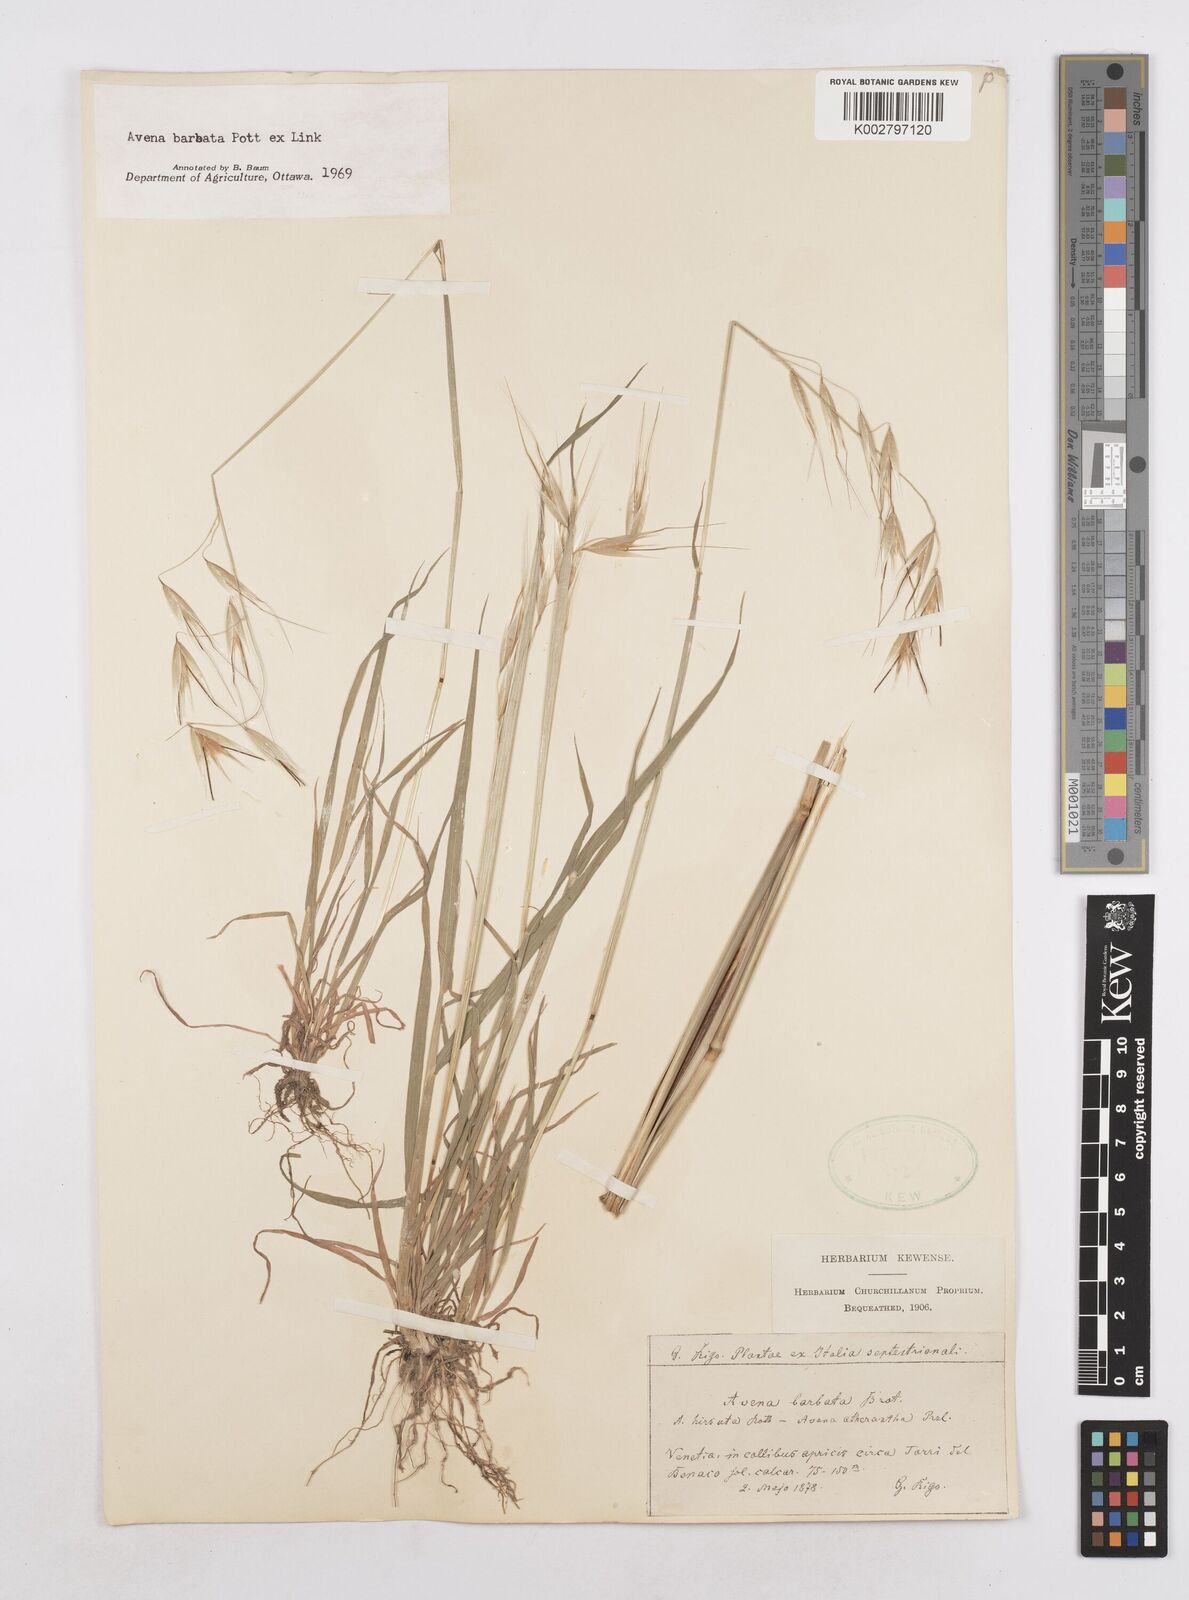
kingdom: Plantae
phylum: Tracheophyta
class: Liliopsida
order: Poales
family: Poaceae
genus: Avena
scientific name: Avena
